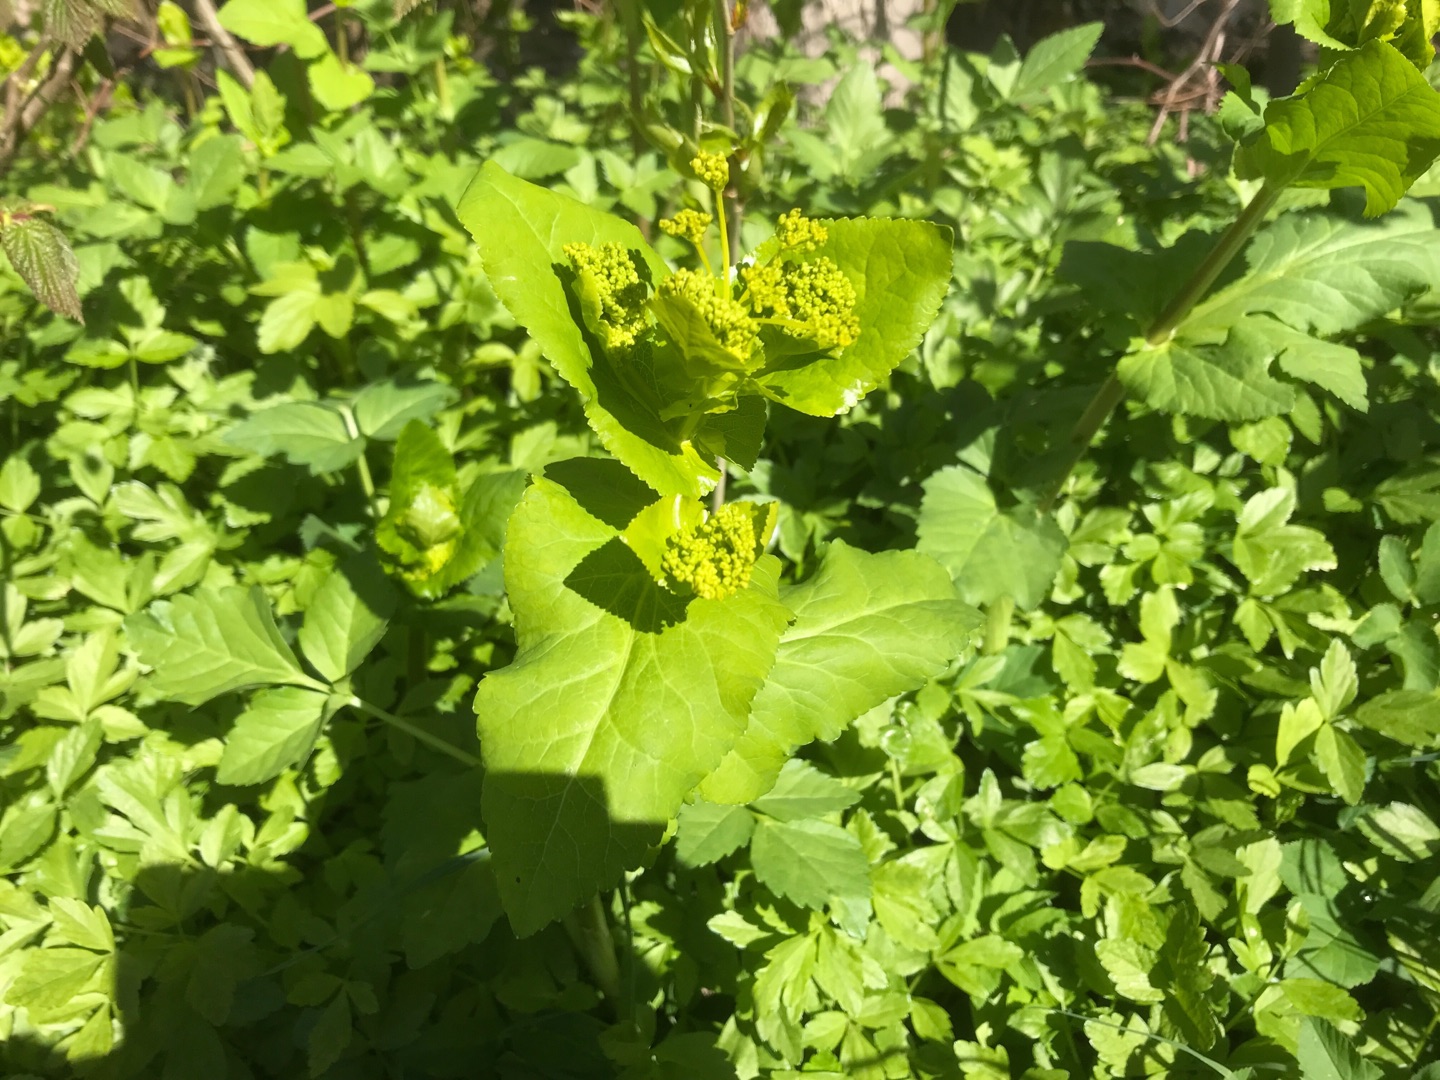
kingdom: Plantae
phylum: Tracheophyta
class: Magnoliopsida
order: Apiales
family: Apiaceae
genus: Smyrnium
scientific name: Smyrnium perfoliatum
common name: Lundgylden
